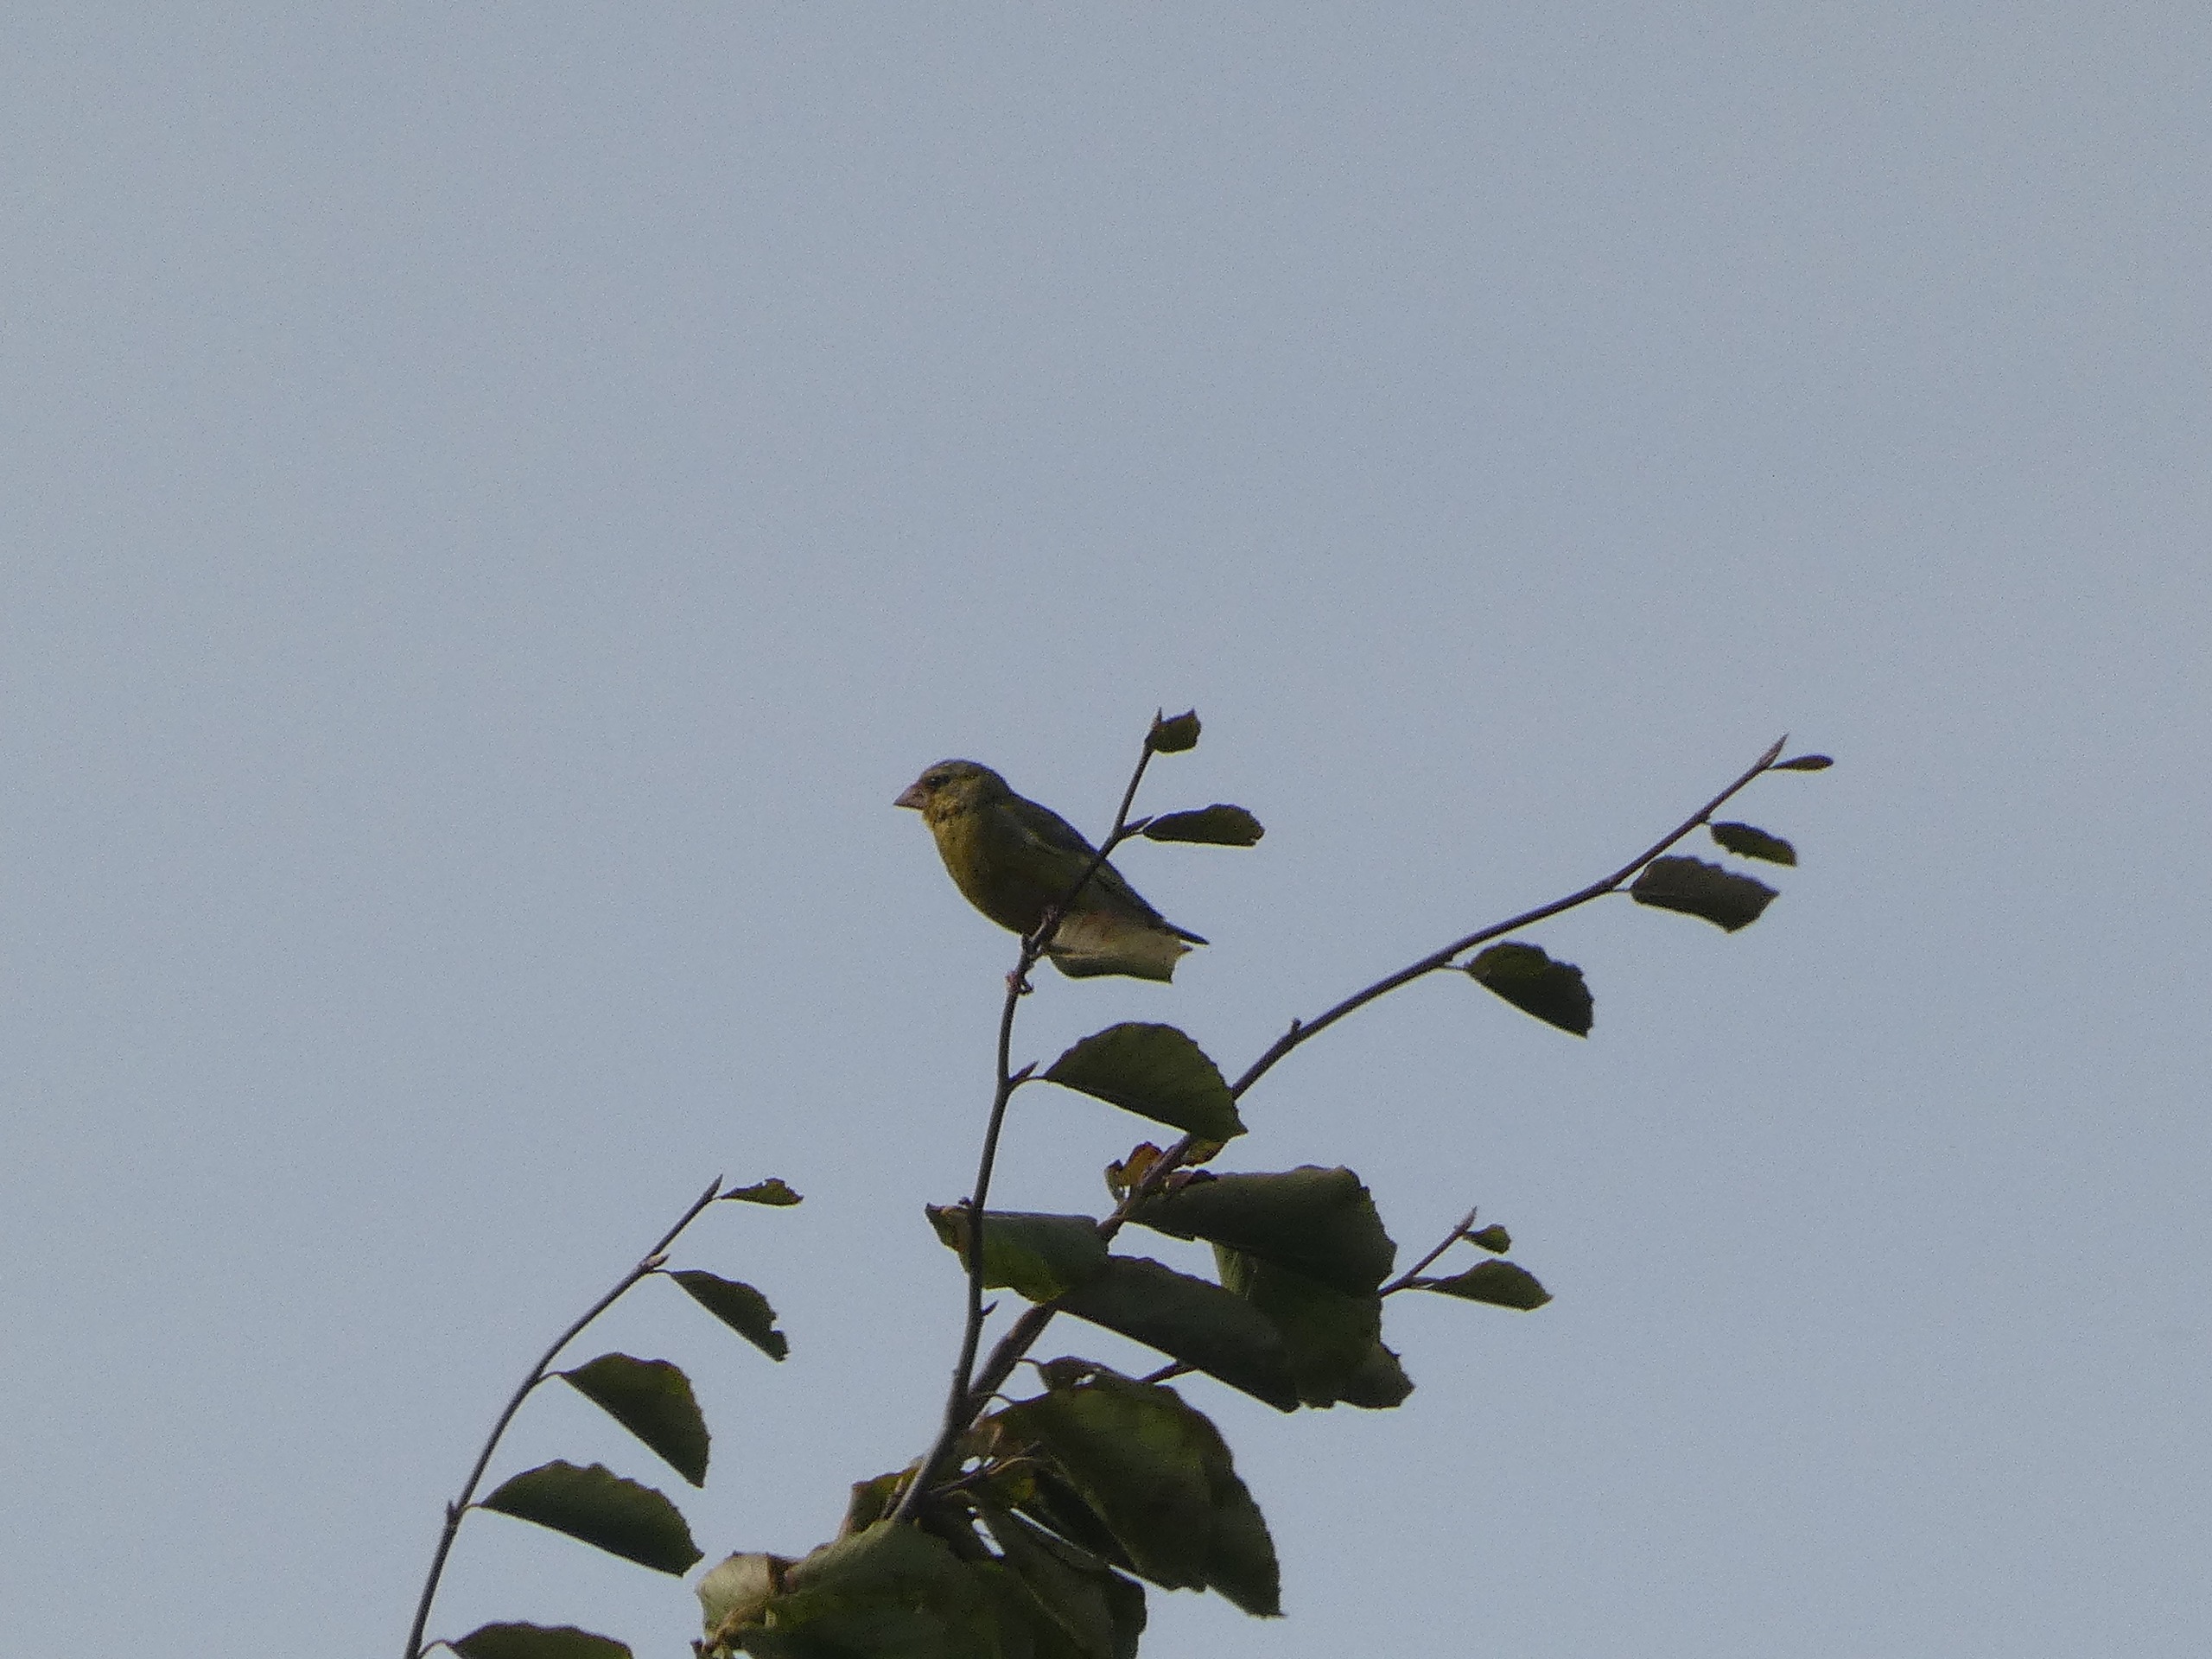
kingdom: Plantae
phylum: Tracheophyta
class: Liliopsida
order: Poales
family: Poaceae
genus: Chloris
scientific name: Chloris chloris
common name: Grønirisk
